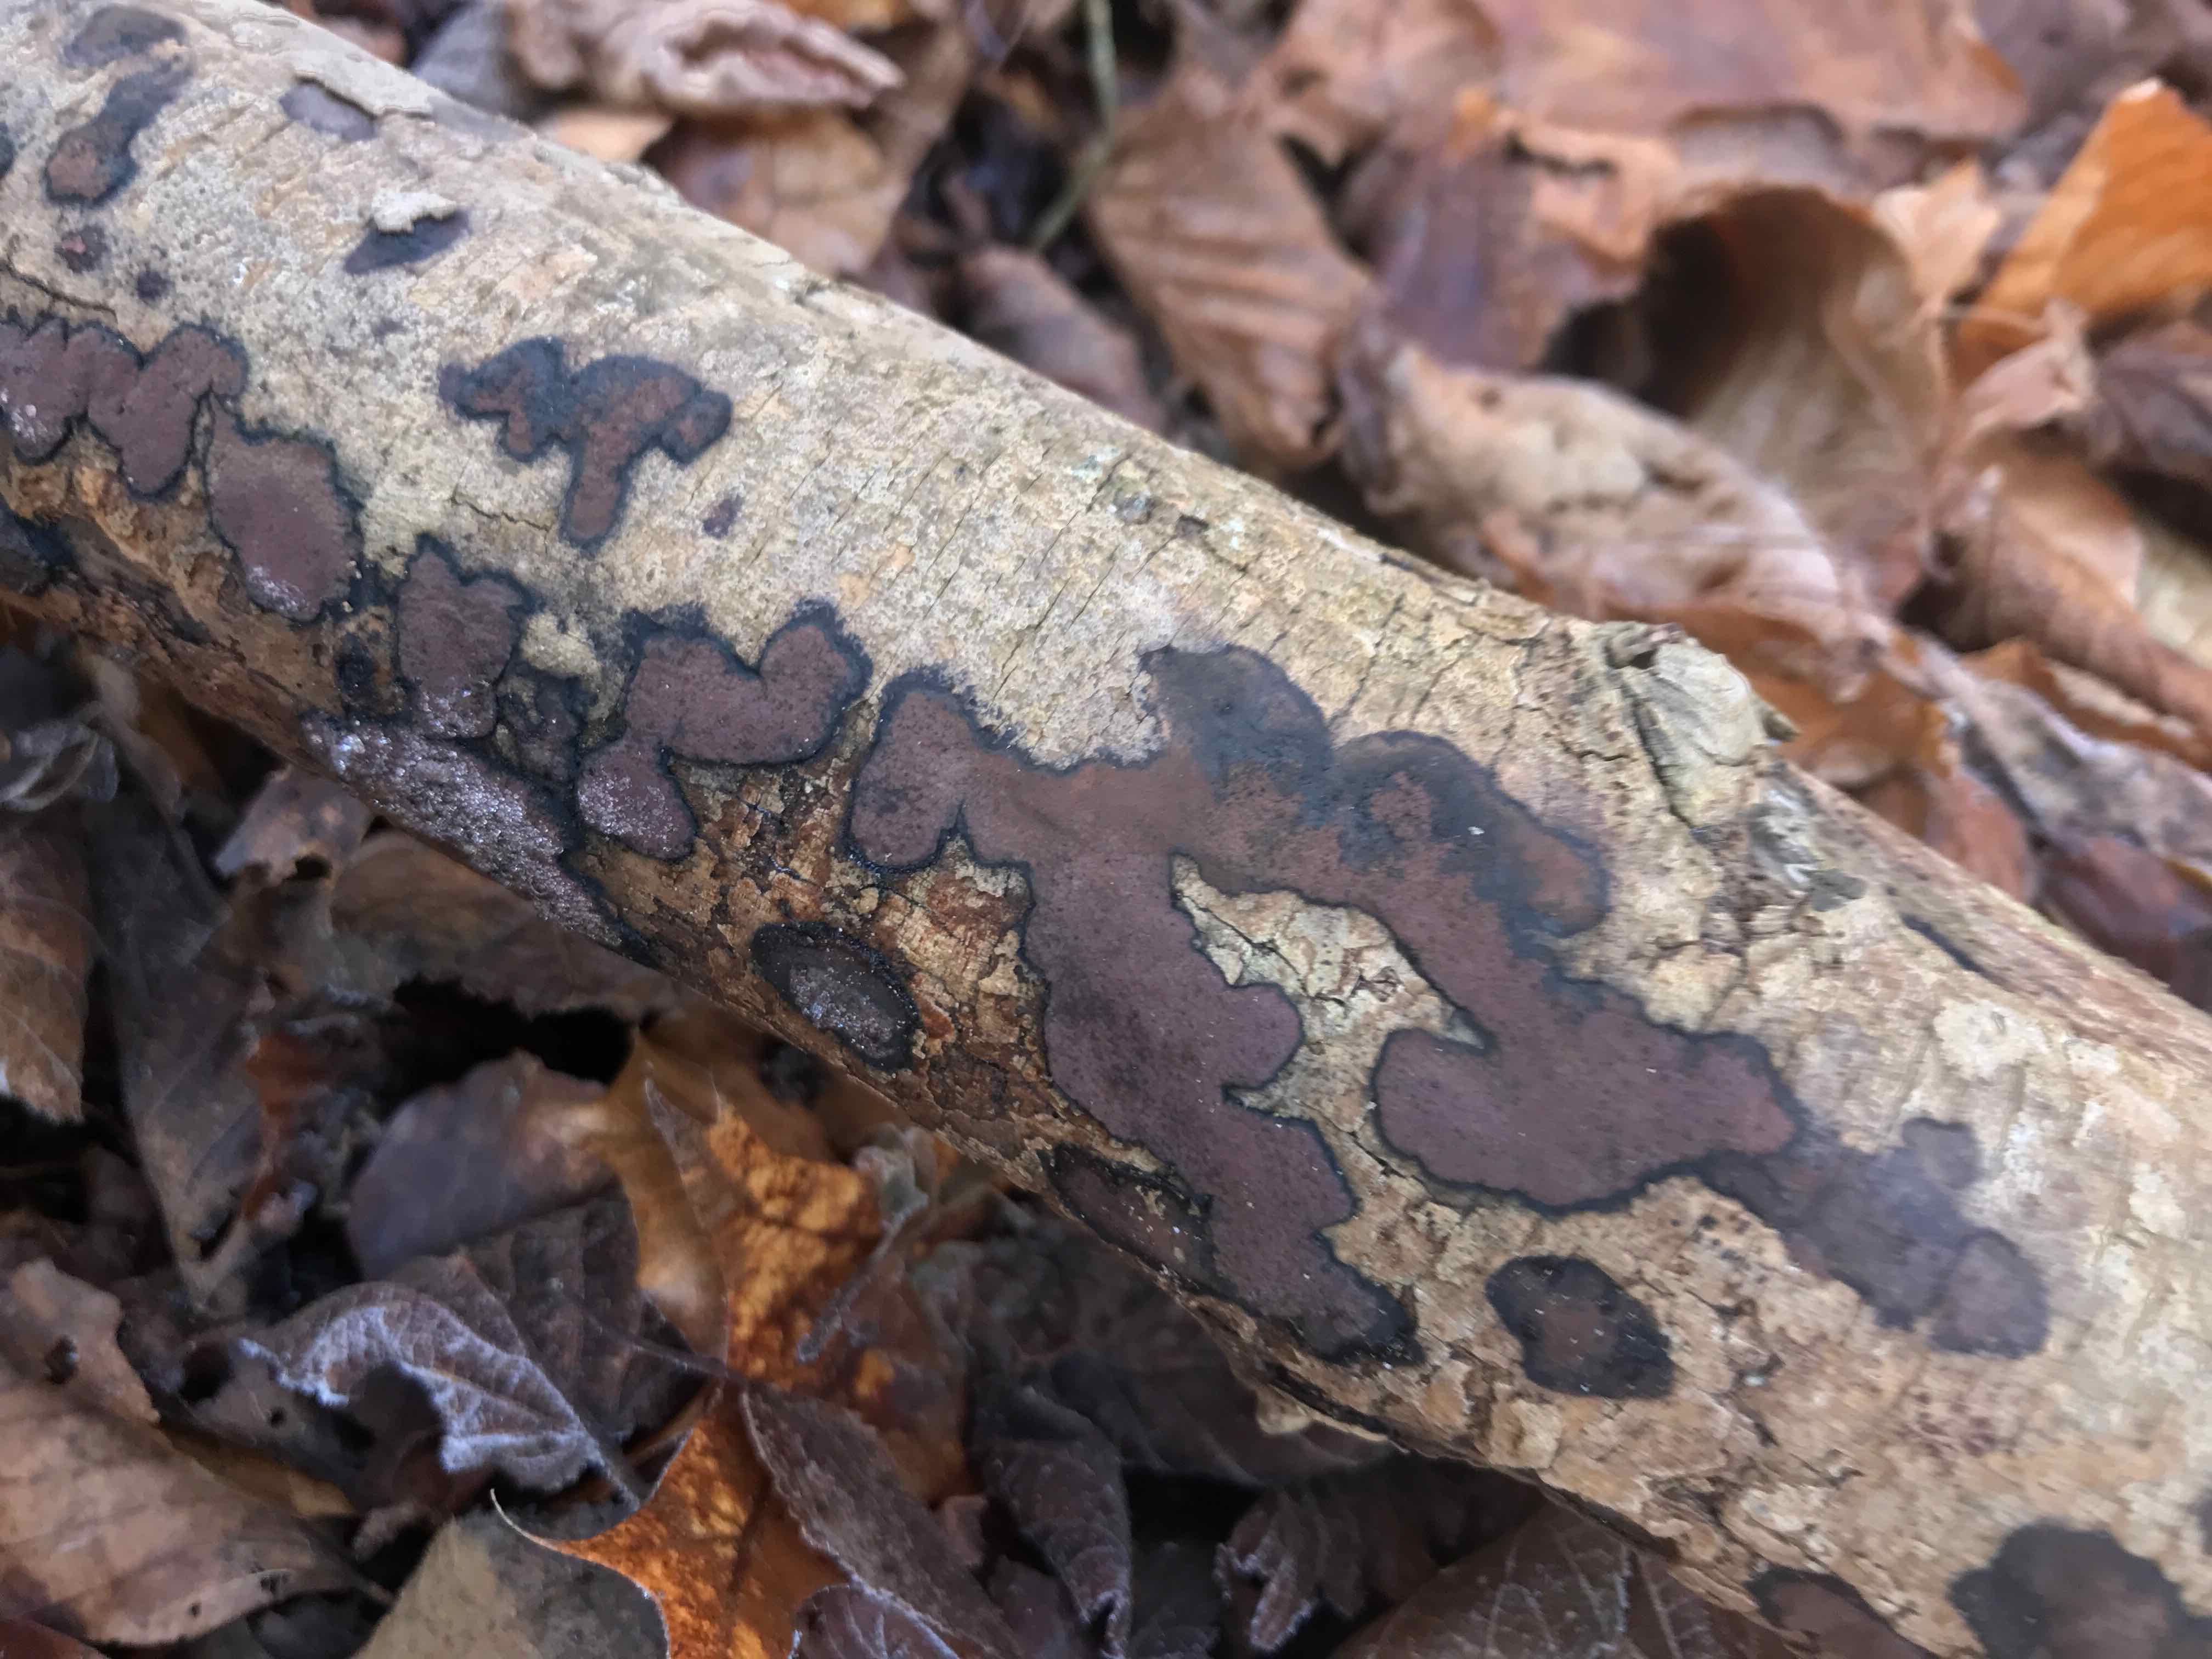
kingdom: Fungi
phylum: Ascomycota
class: Sordariomycetes
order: Xylariales
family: Hypoxylaceae
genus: Hypoxylon
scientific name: Hypoxylon petriniae
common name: nedsænket kulbær
